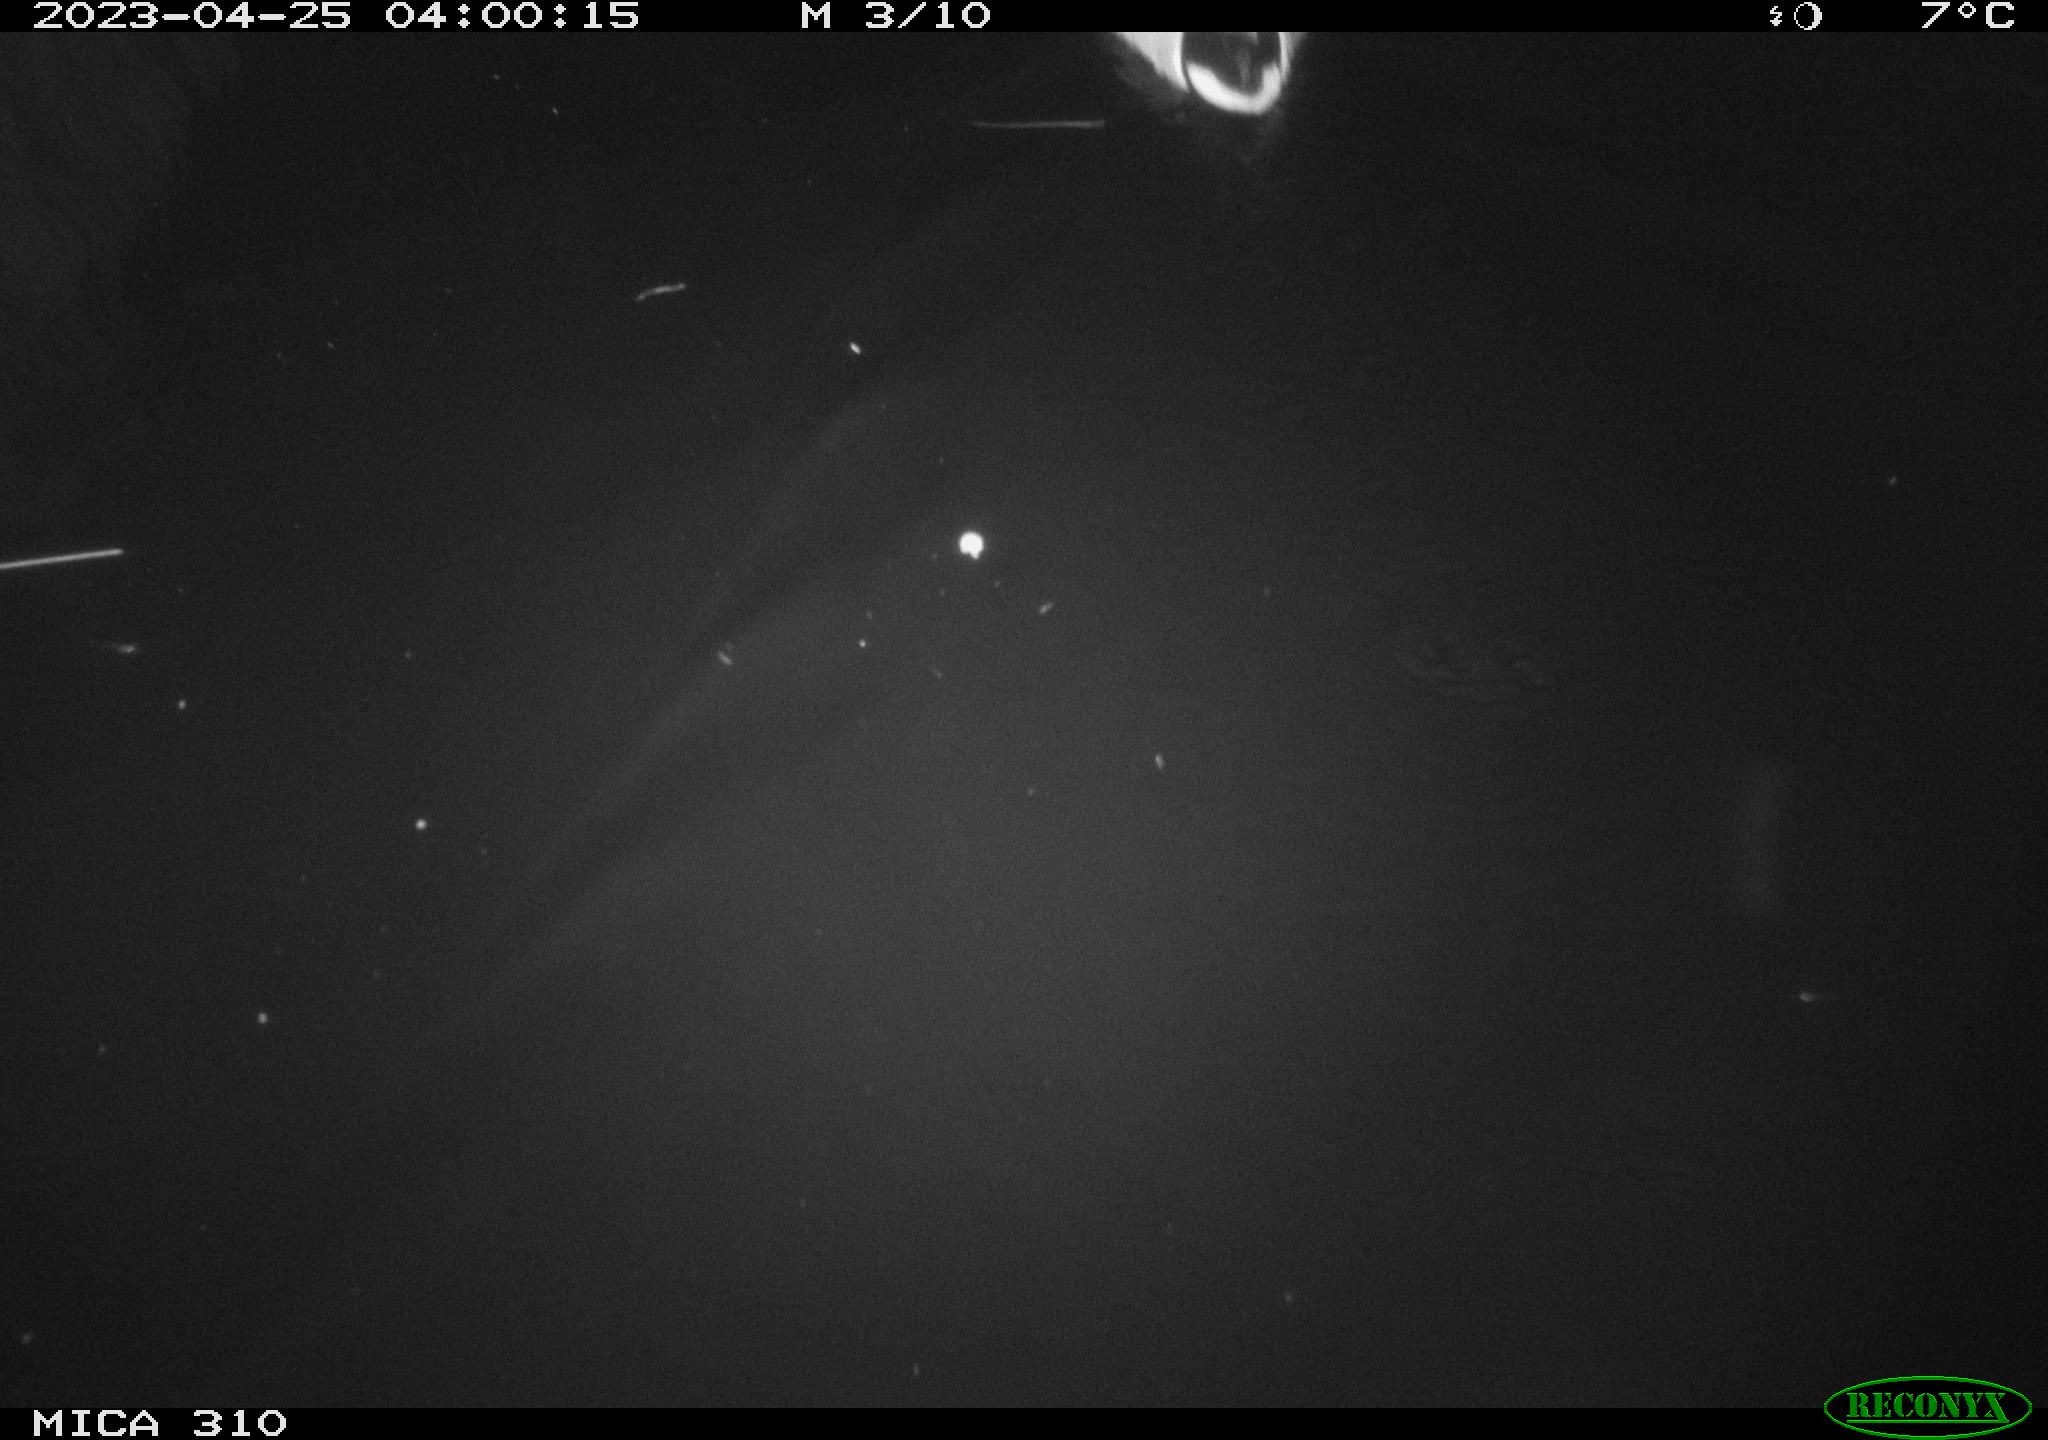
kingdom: Animalia
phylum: Chordata
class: Aves
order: Anseriformes
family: Anatidae
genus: Anas
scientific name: Anas
